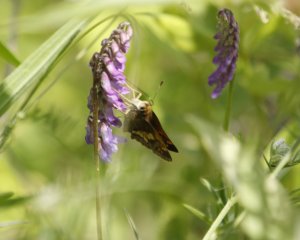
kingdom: Animalia
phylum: Arthropoda
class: Insecta
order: Lepidoptera
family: Hesperiidae
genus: Lon
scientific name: Lon hobomok
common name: Hobomok Skipper
